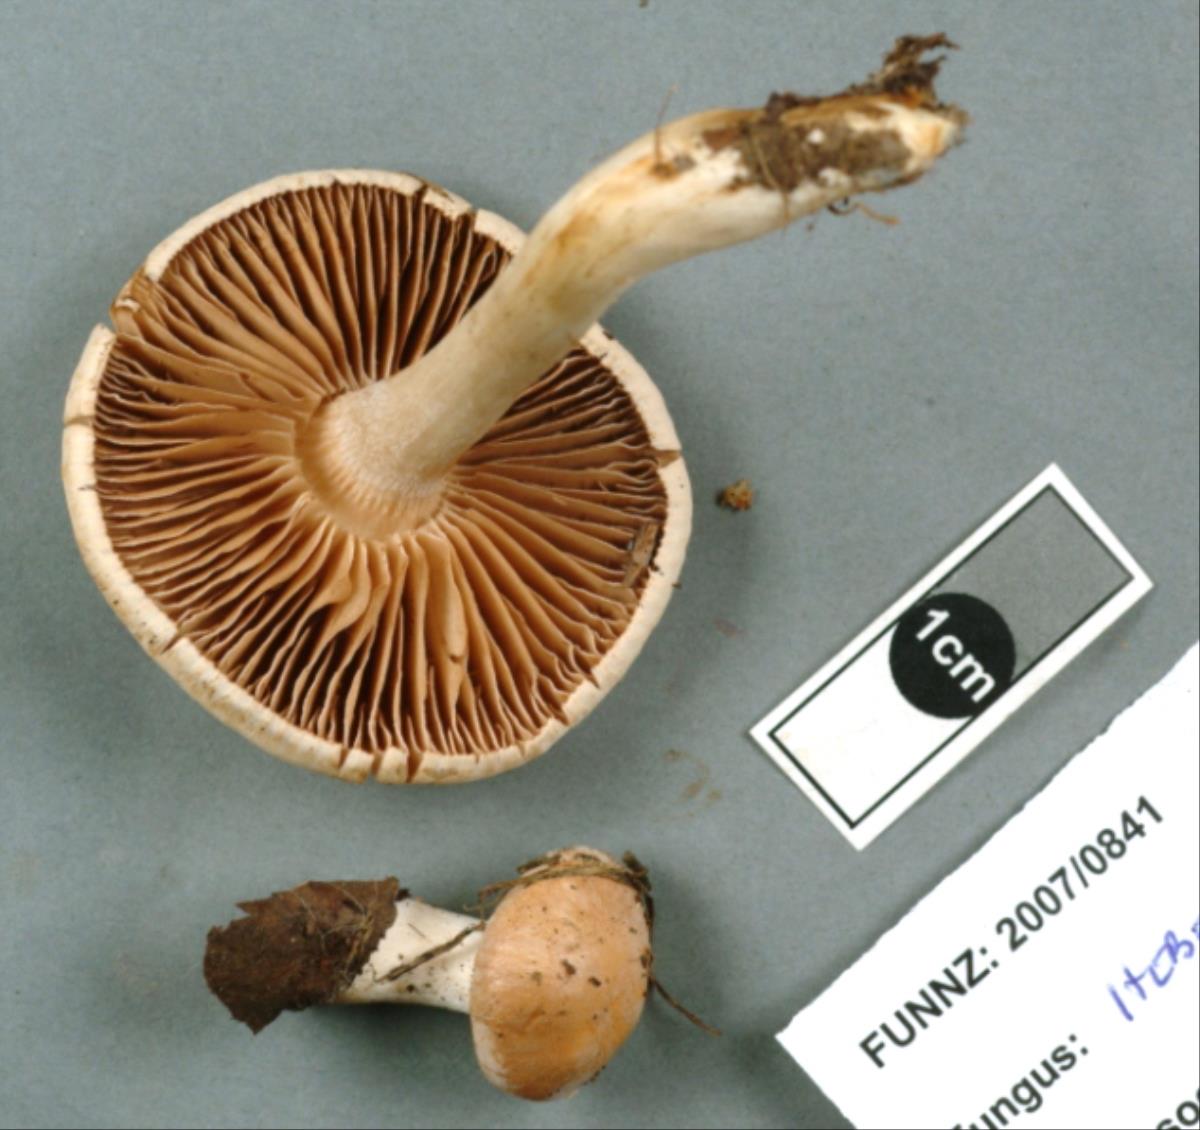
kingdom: Fungi
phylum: Basidiomycota
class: Agaricomycetes
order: Agaricales
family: Hymenogastraceae
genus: Hebeloma
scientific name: Hebeloma leucosarx
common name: Birch poisonpie
